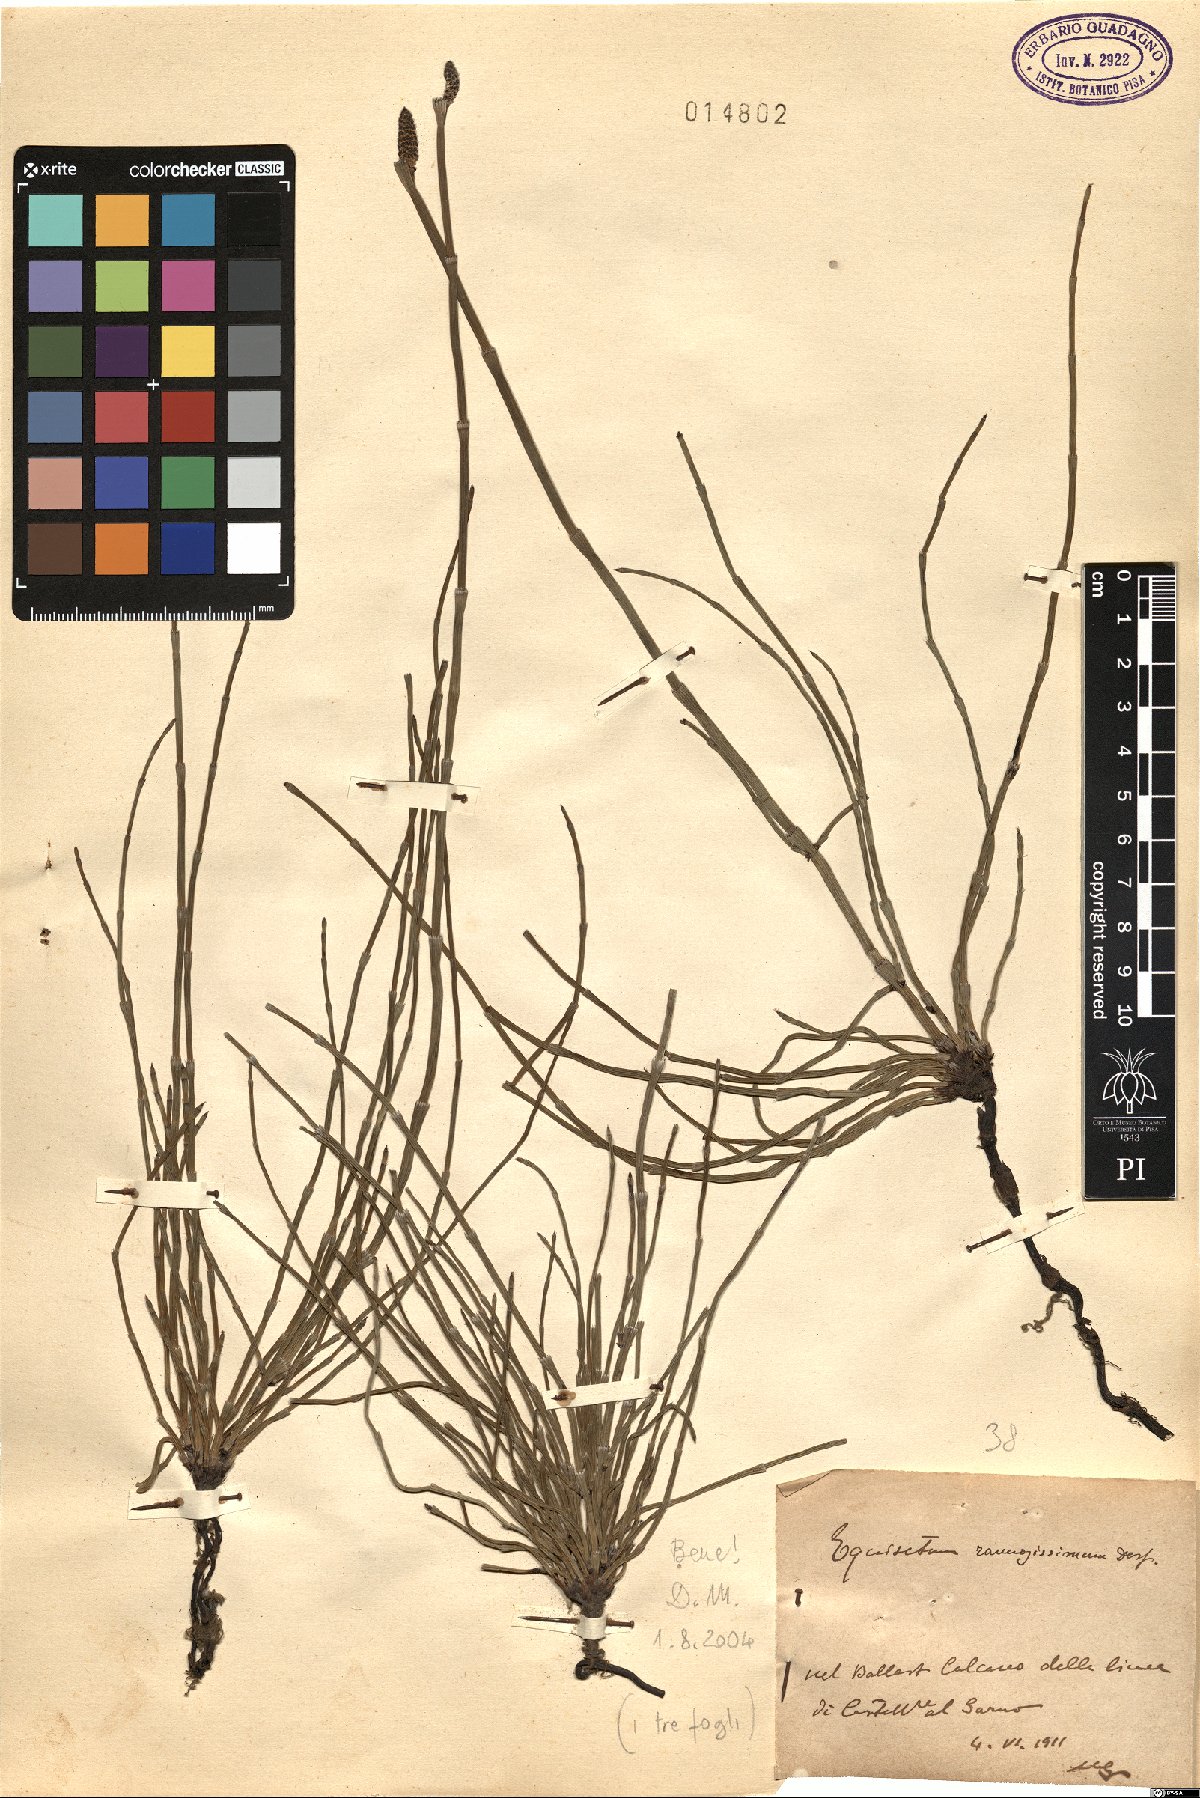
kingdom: Plantae
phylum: Tracheophyta
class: Polypodiopsida
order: Equisetales
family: Equisetaceae
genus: Equisetum
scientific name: Equisetum ramosissimum
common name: Branched horsetail
